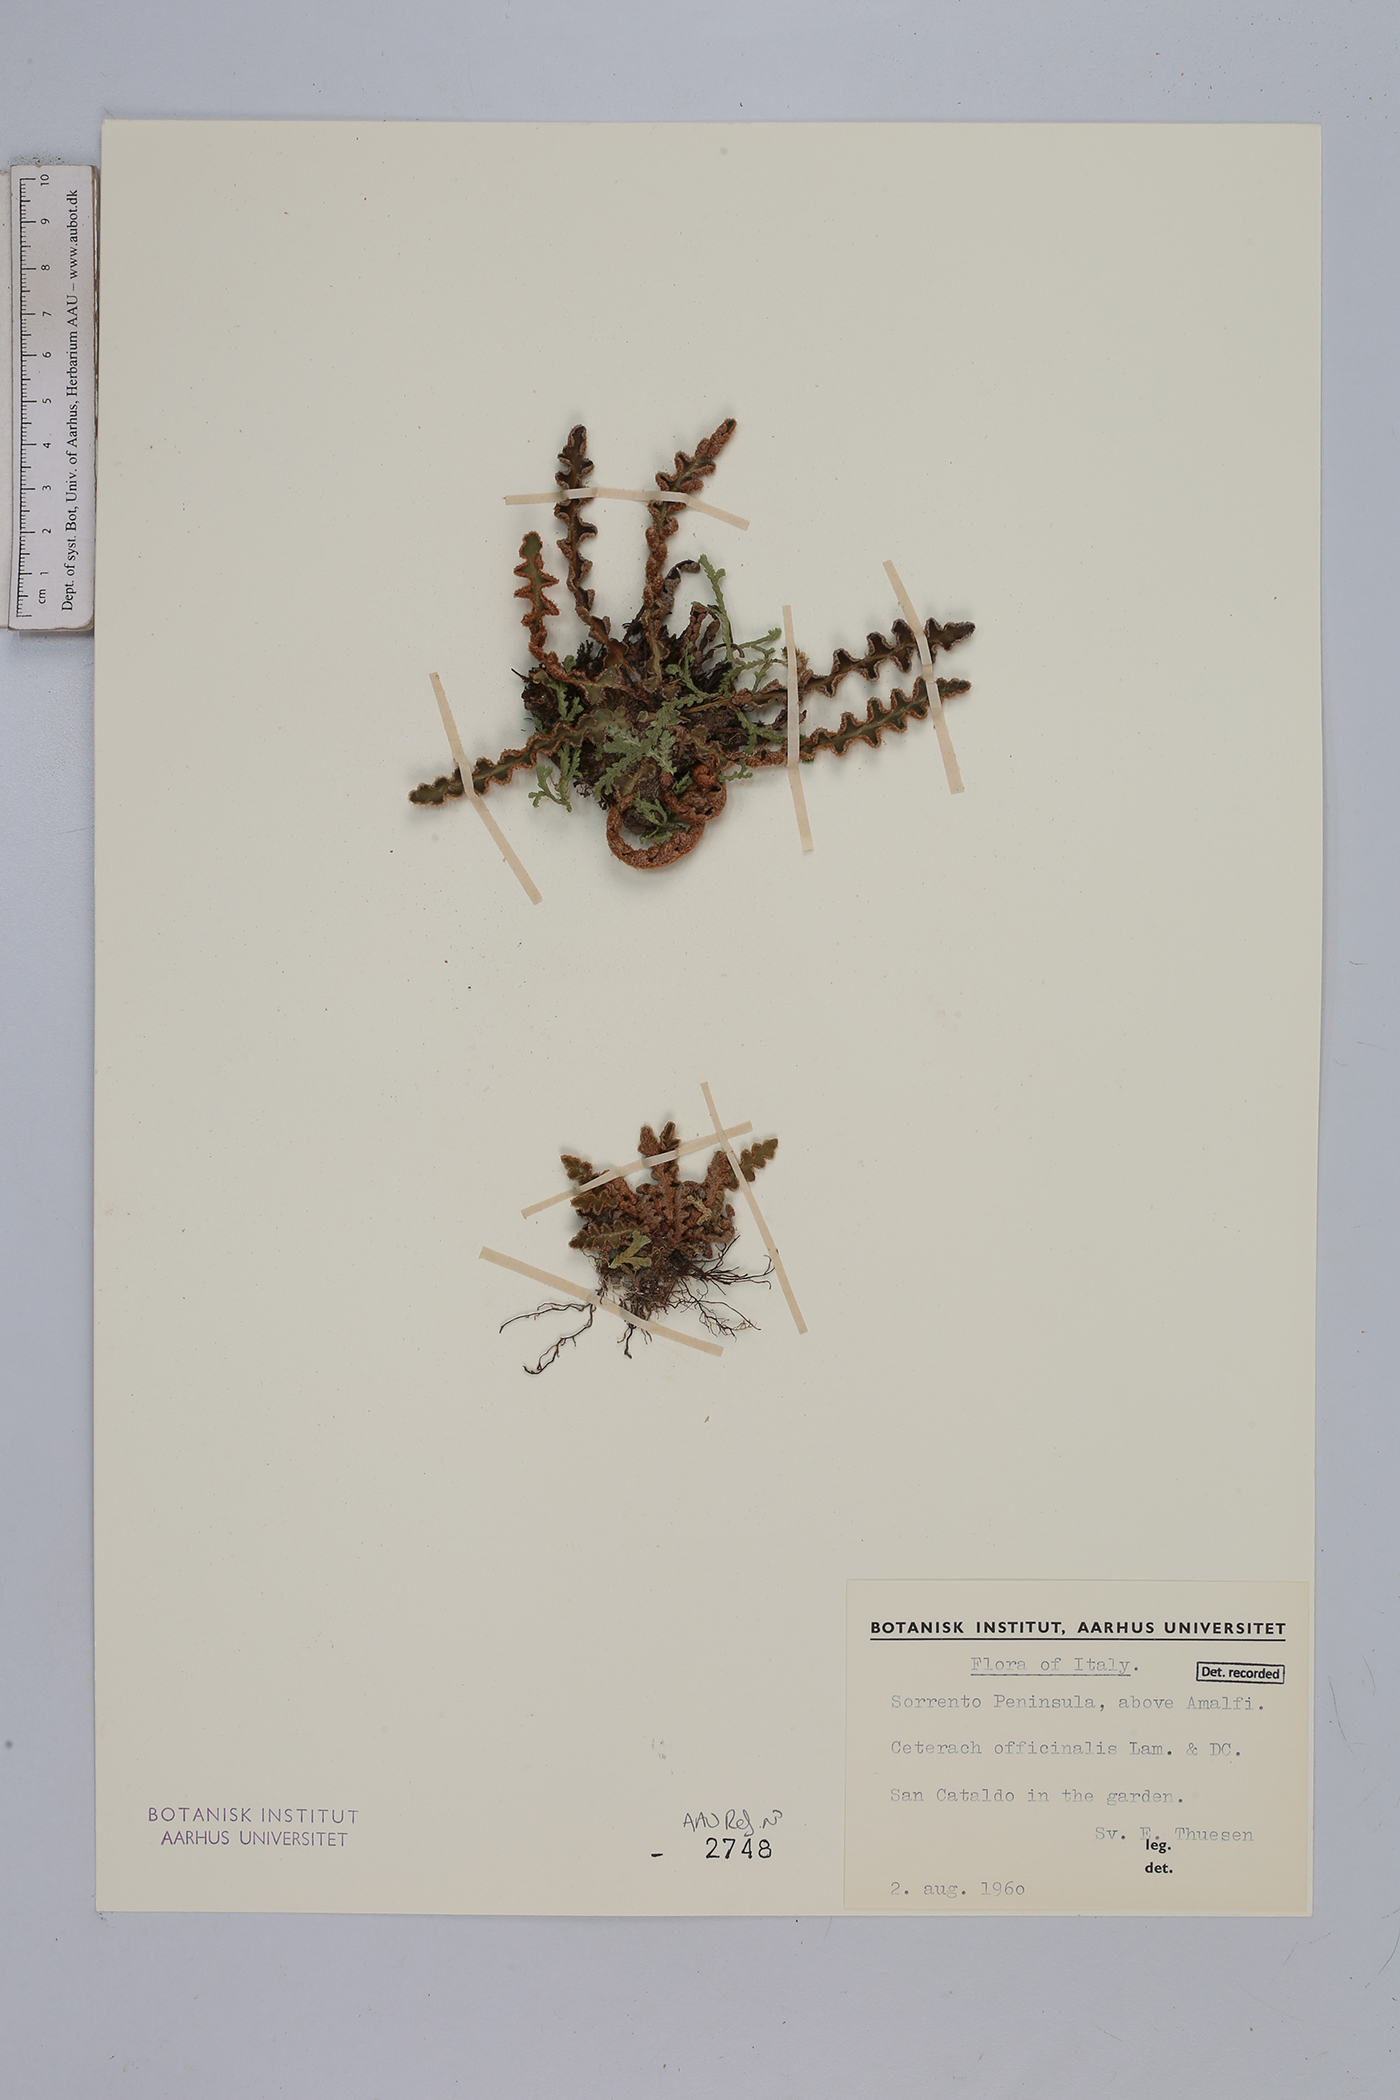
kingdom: Plantae
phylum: Tracheophyta
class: Polypodiopsida
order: Polypodiales
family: Aspleniaceae
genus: Asplenium
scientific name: Asplenium ceterach
